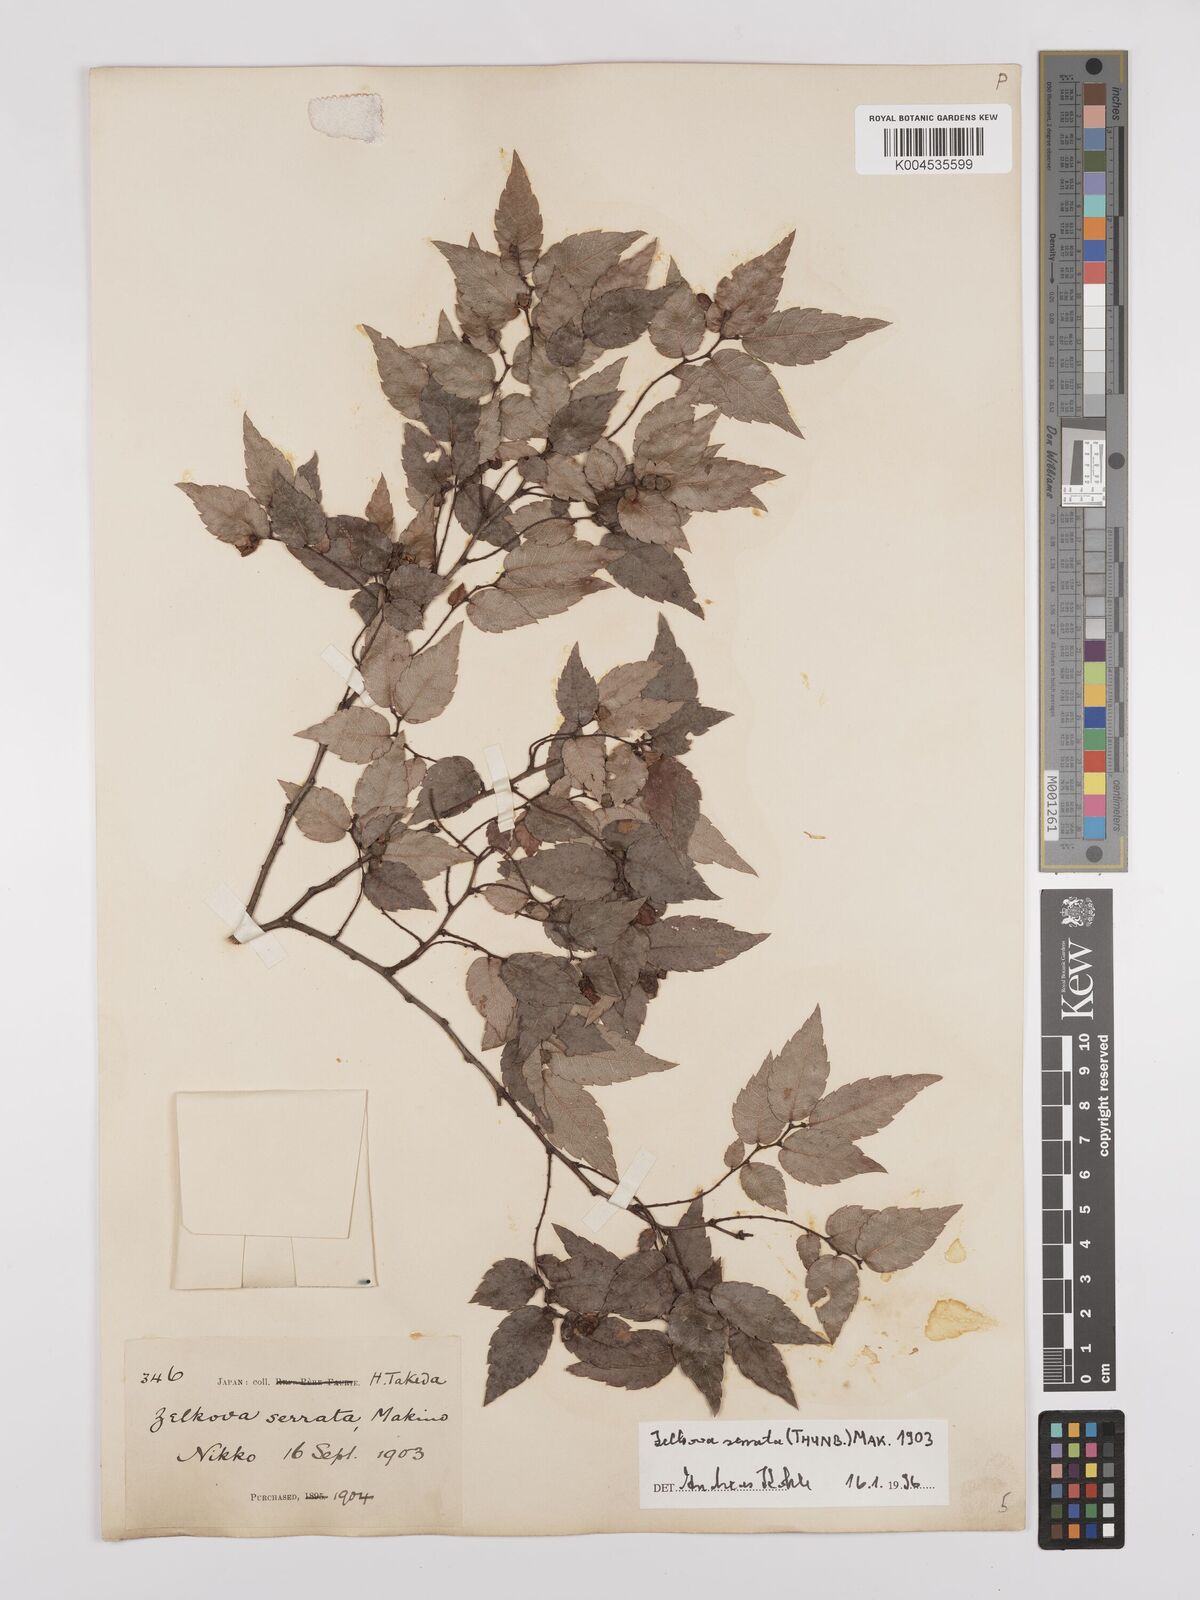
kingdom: Plantae
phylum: Tracheophyta
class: Magnoliopsida
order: Rosales
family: Ulmaceae
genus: Zelkova
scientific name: Zelkova serrata
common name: Japanese zelkova
